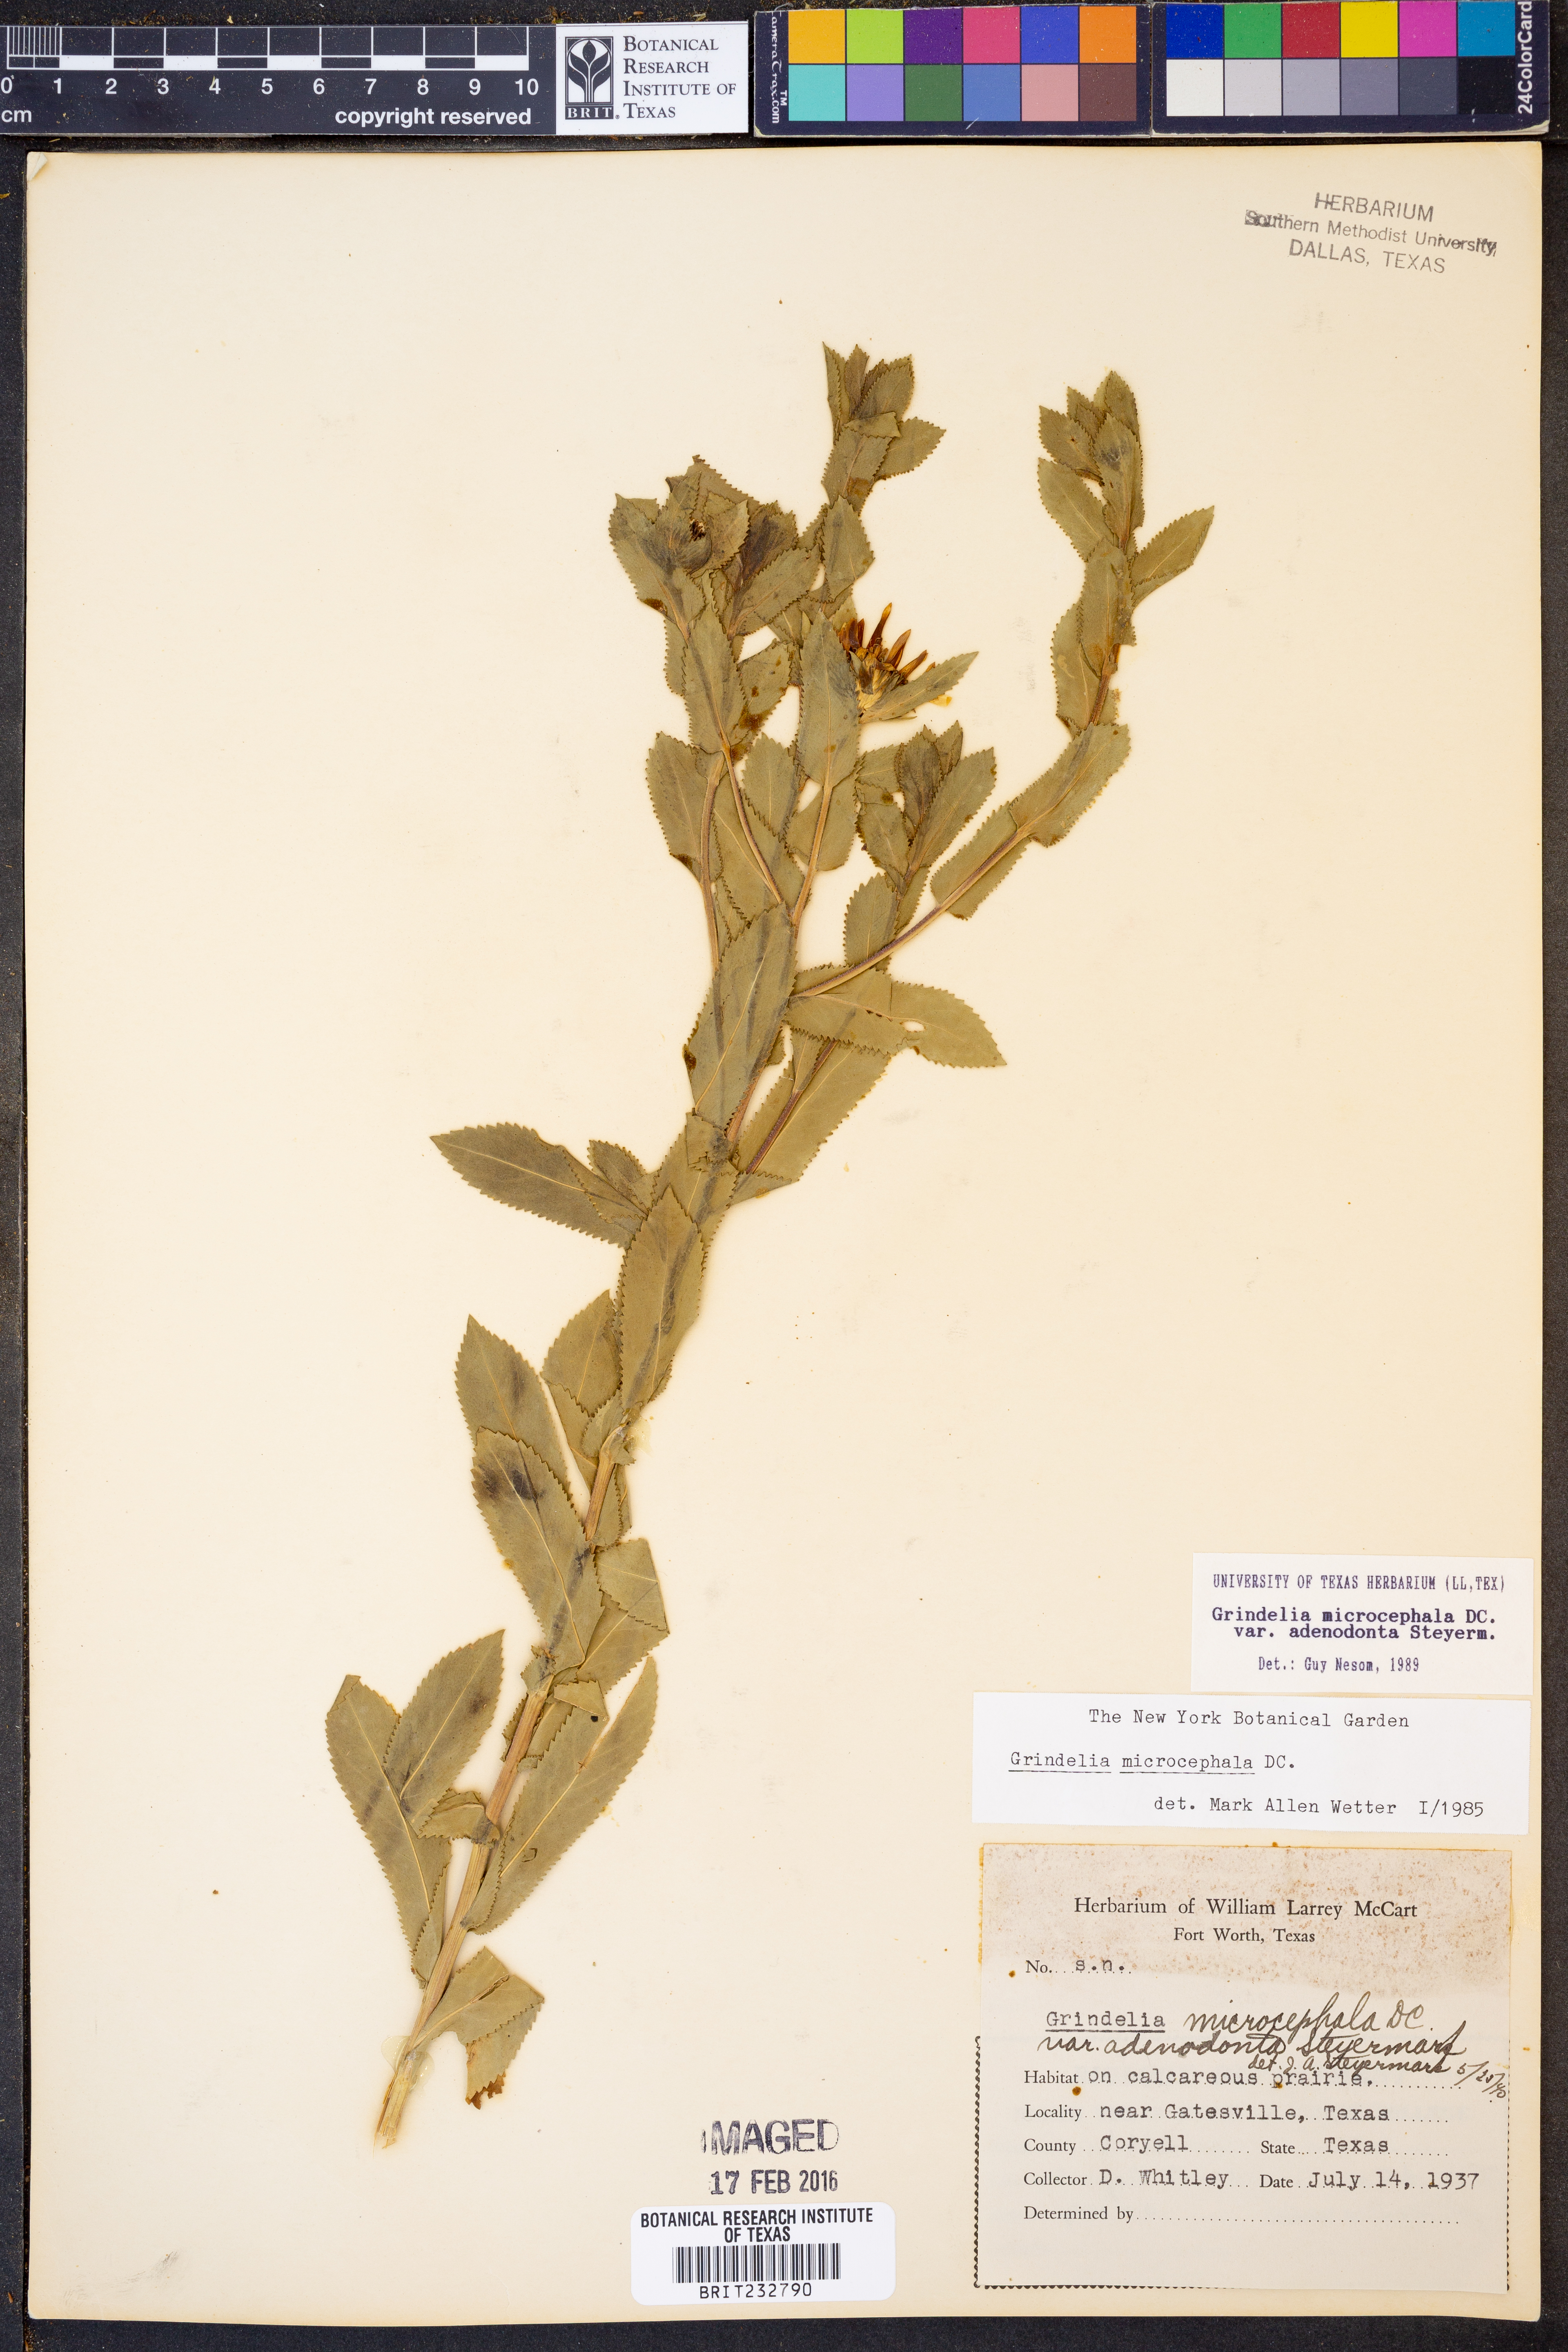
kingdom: Plantae
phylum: Tracheophyta
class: Magnoliopsida
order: Asterales
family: Asteraceae
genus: Grindelia
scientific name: Grindelia adenodonta
